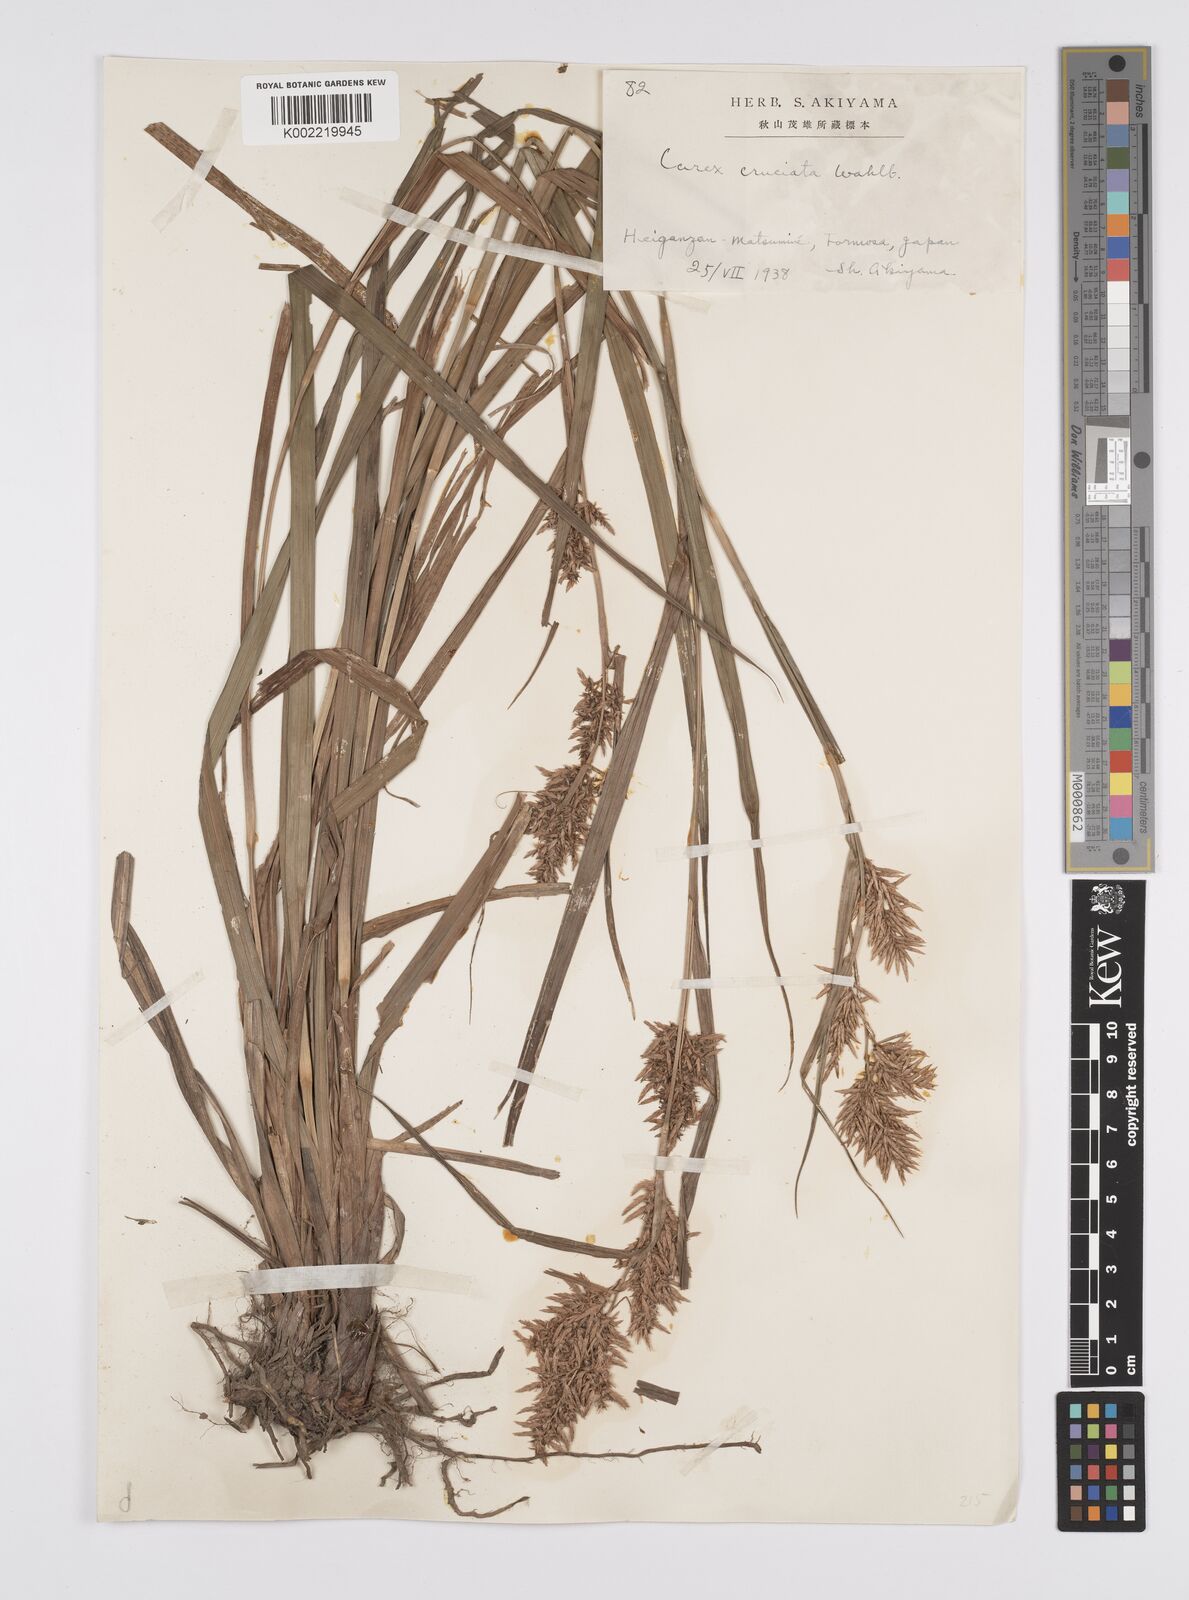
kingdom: Plantae
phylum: Tracheophyta
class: Liliopsida
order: Poales
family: Cyperaceae
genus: Carex
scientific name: Carex cruciata
